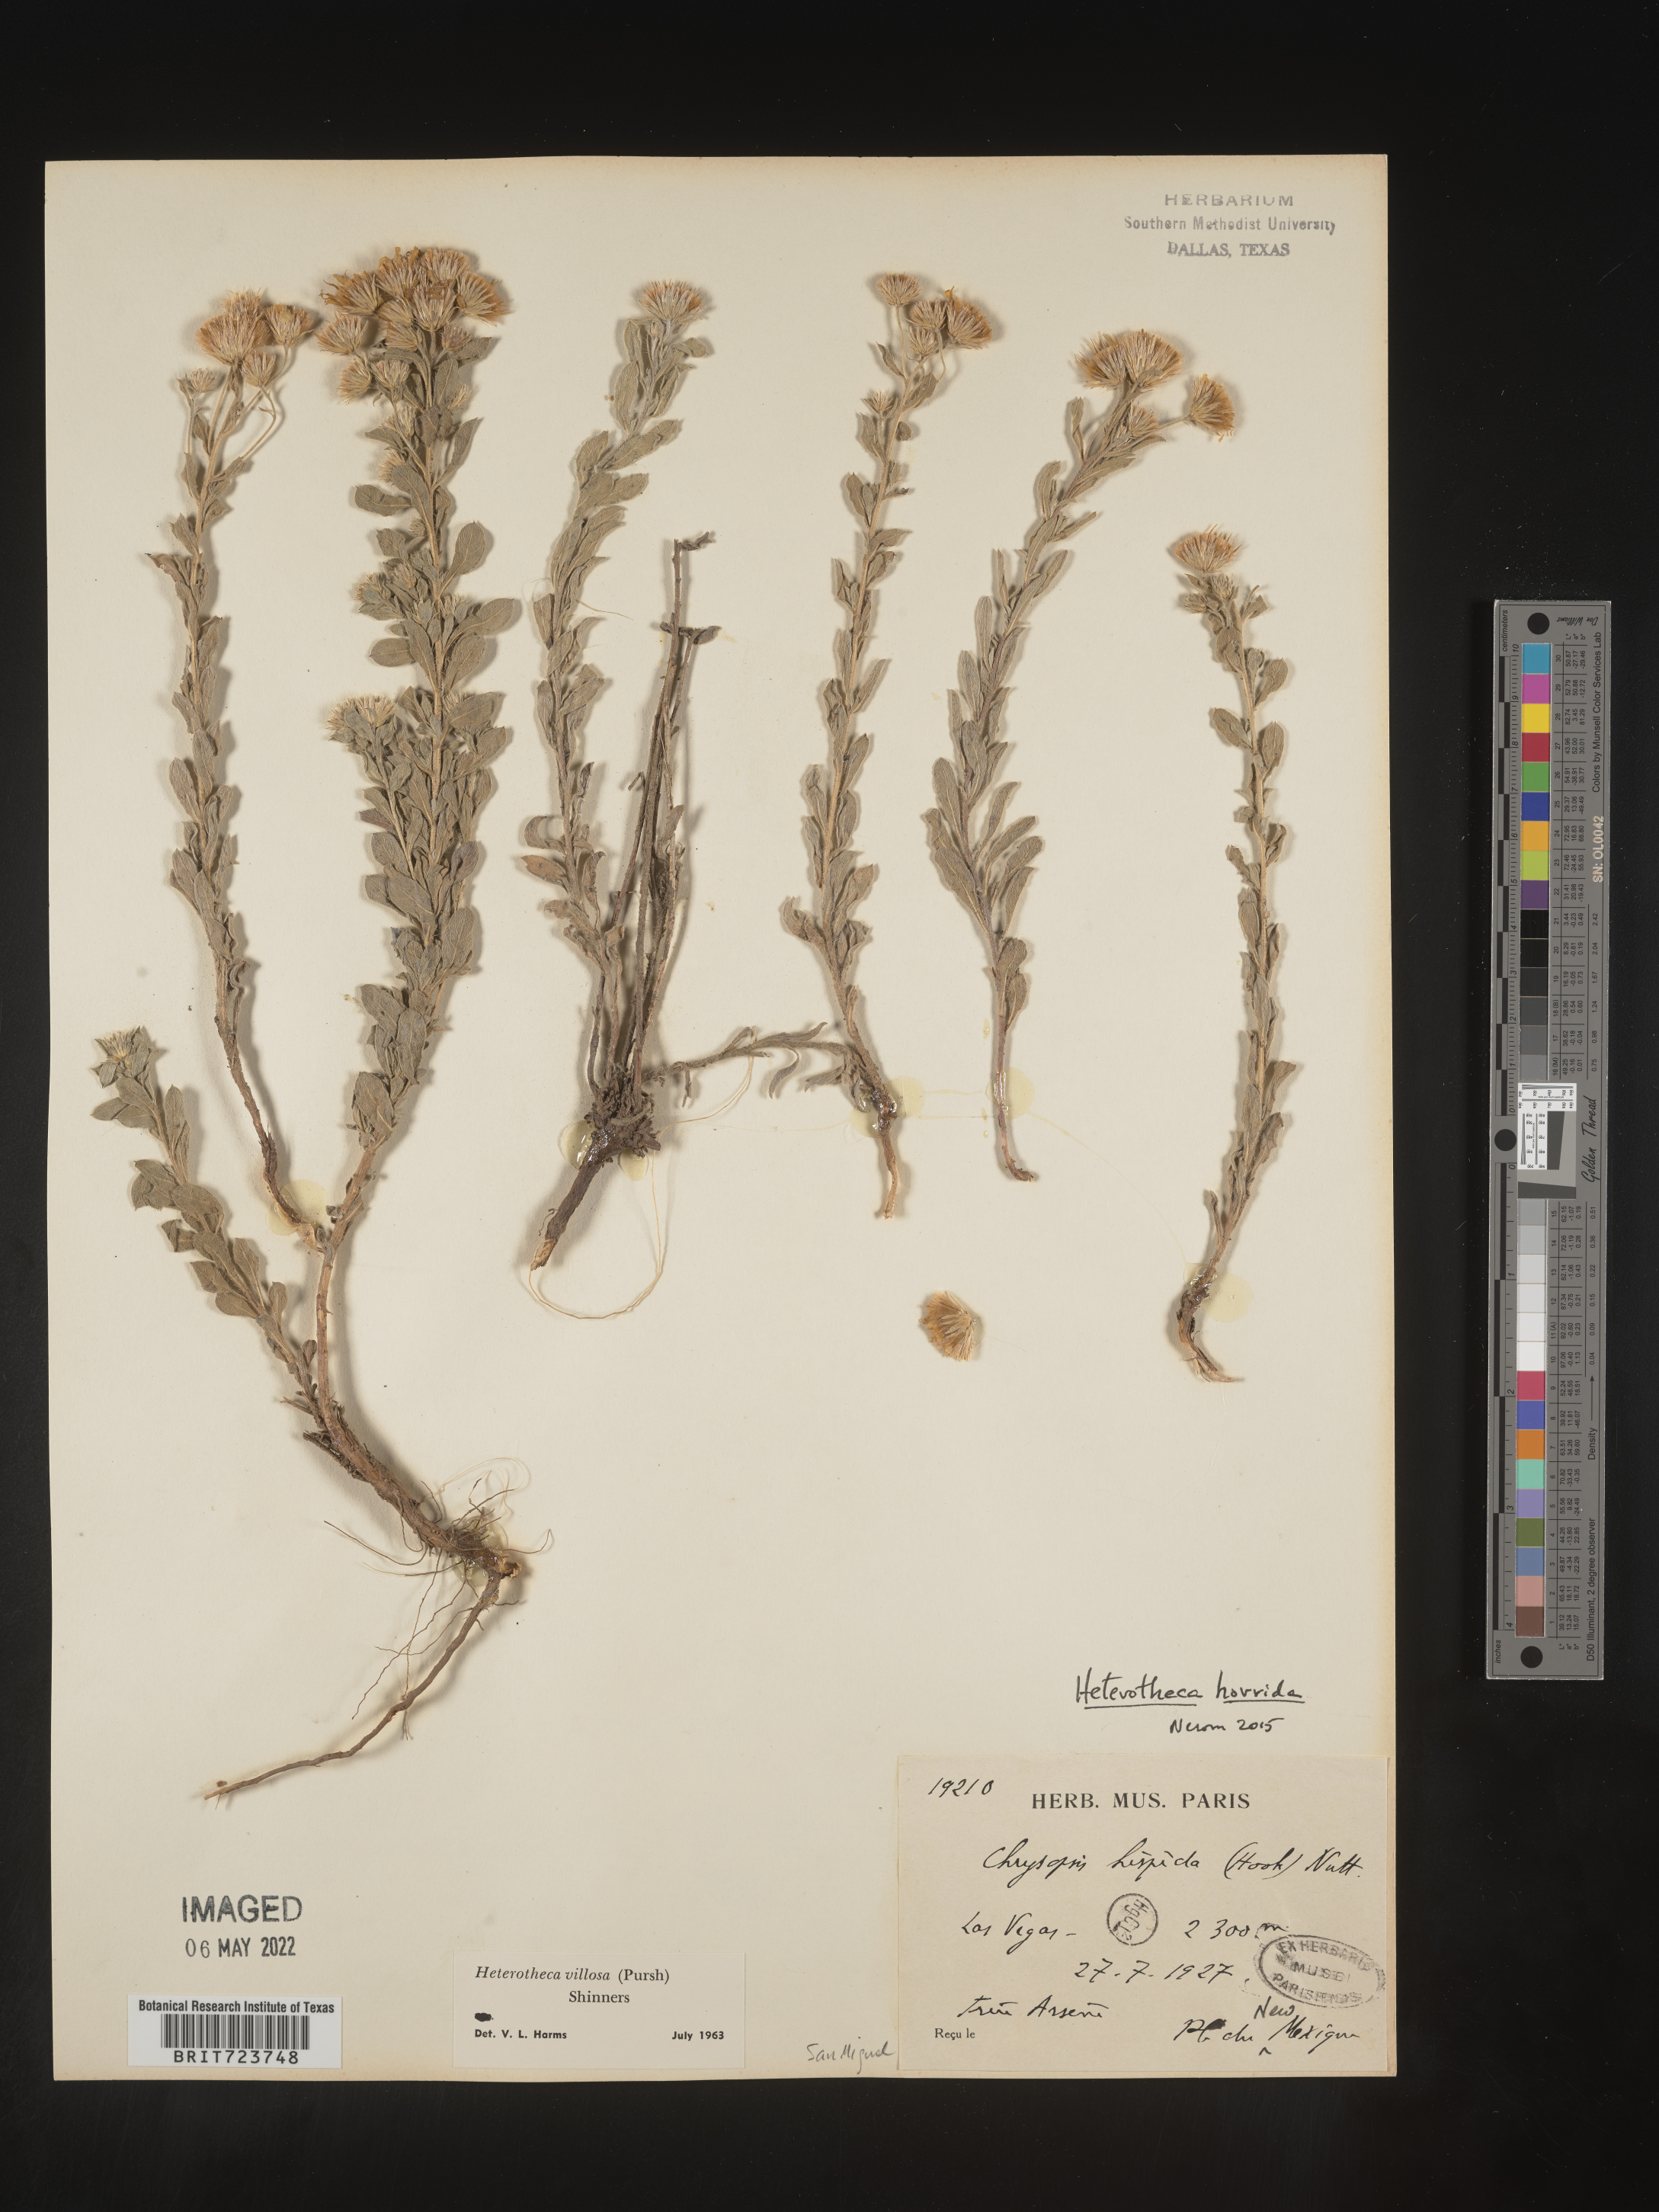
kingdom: Plantae
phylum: Tracheophyta
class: Magnoliopsida
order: Asterales
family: Asteraceae
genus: Heterotheca
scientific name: Heterotheca hirsutissima
